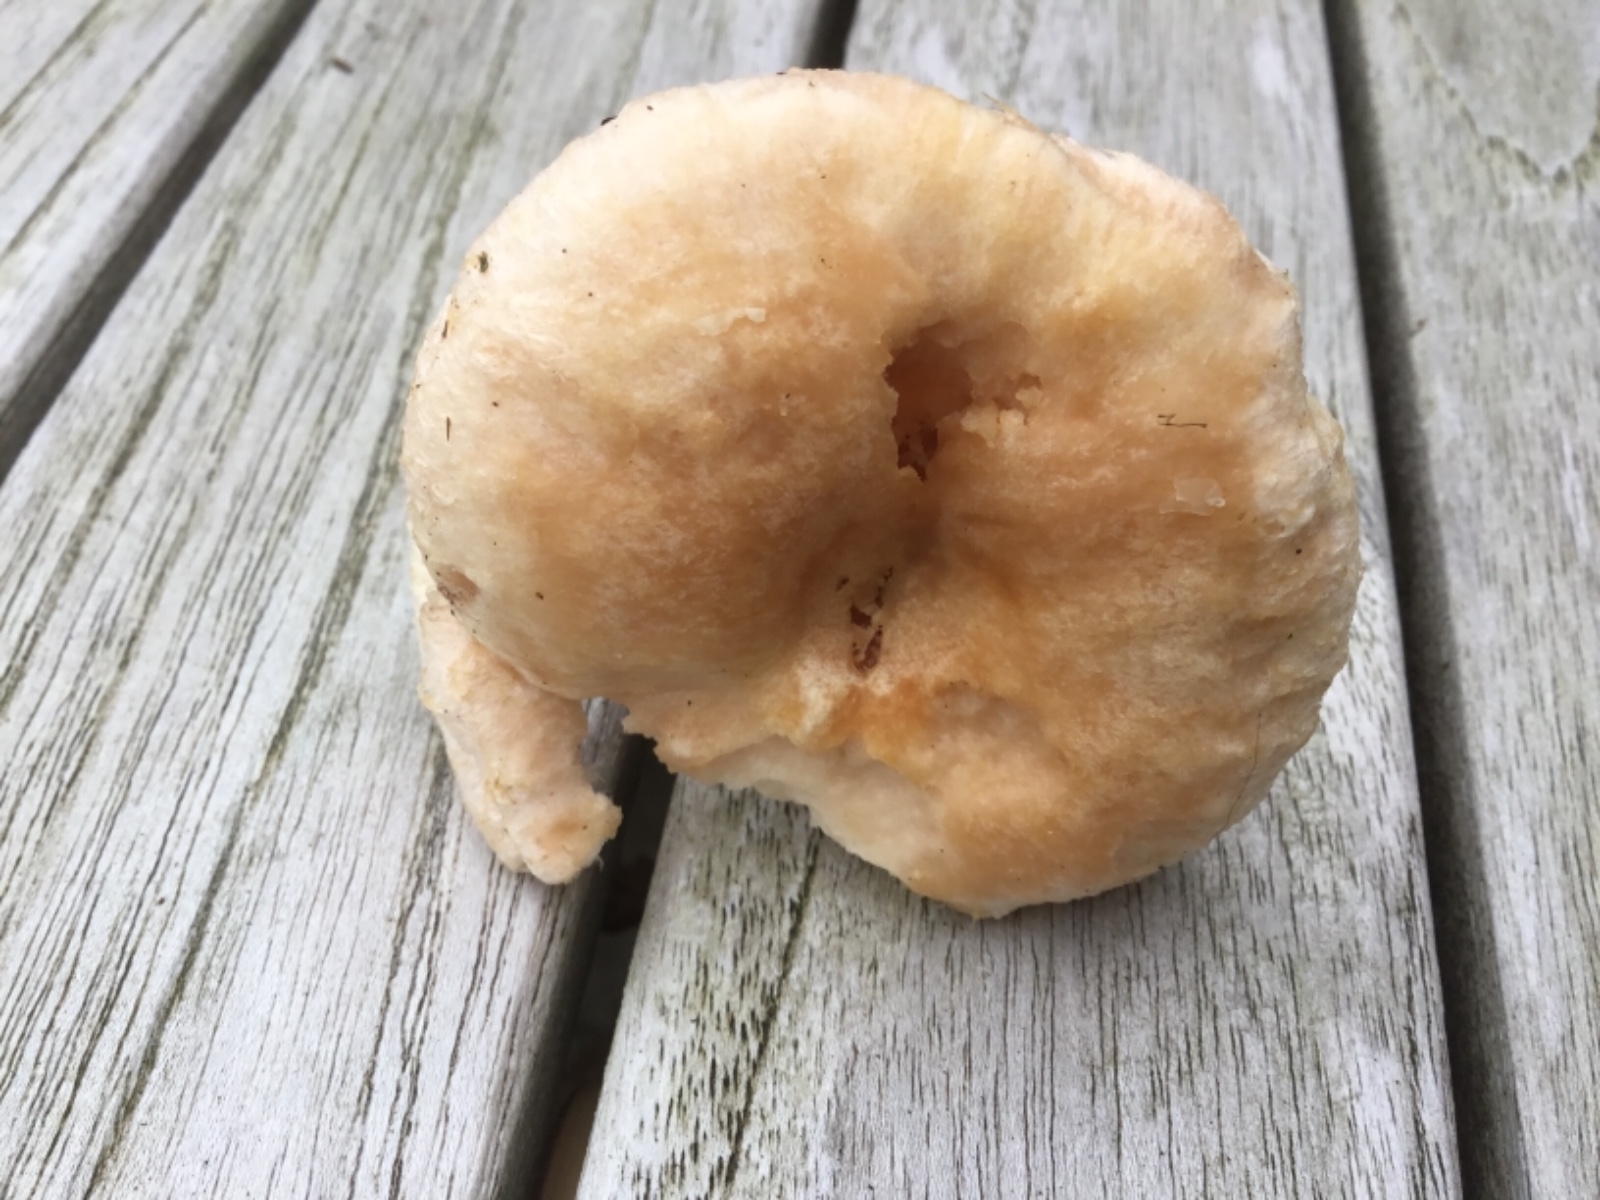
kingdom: Fungi
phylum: Basidiomycota
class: Agaricomycetes
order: Russulales
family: Russulaceae
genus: Lactarius
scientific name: Lactarius pubescens
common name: dunet mælkehat
